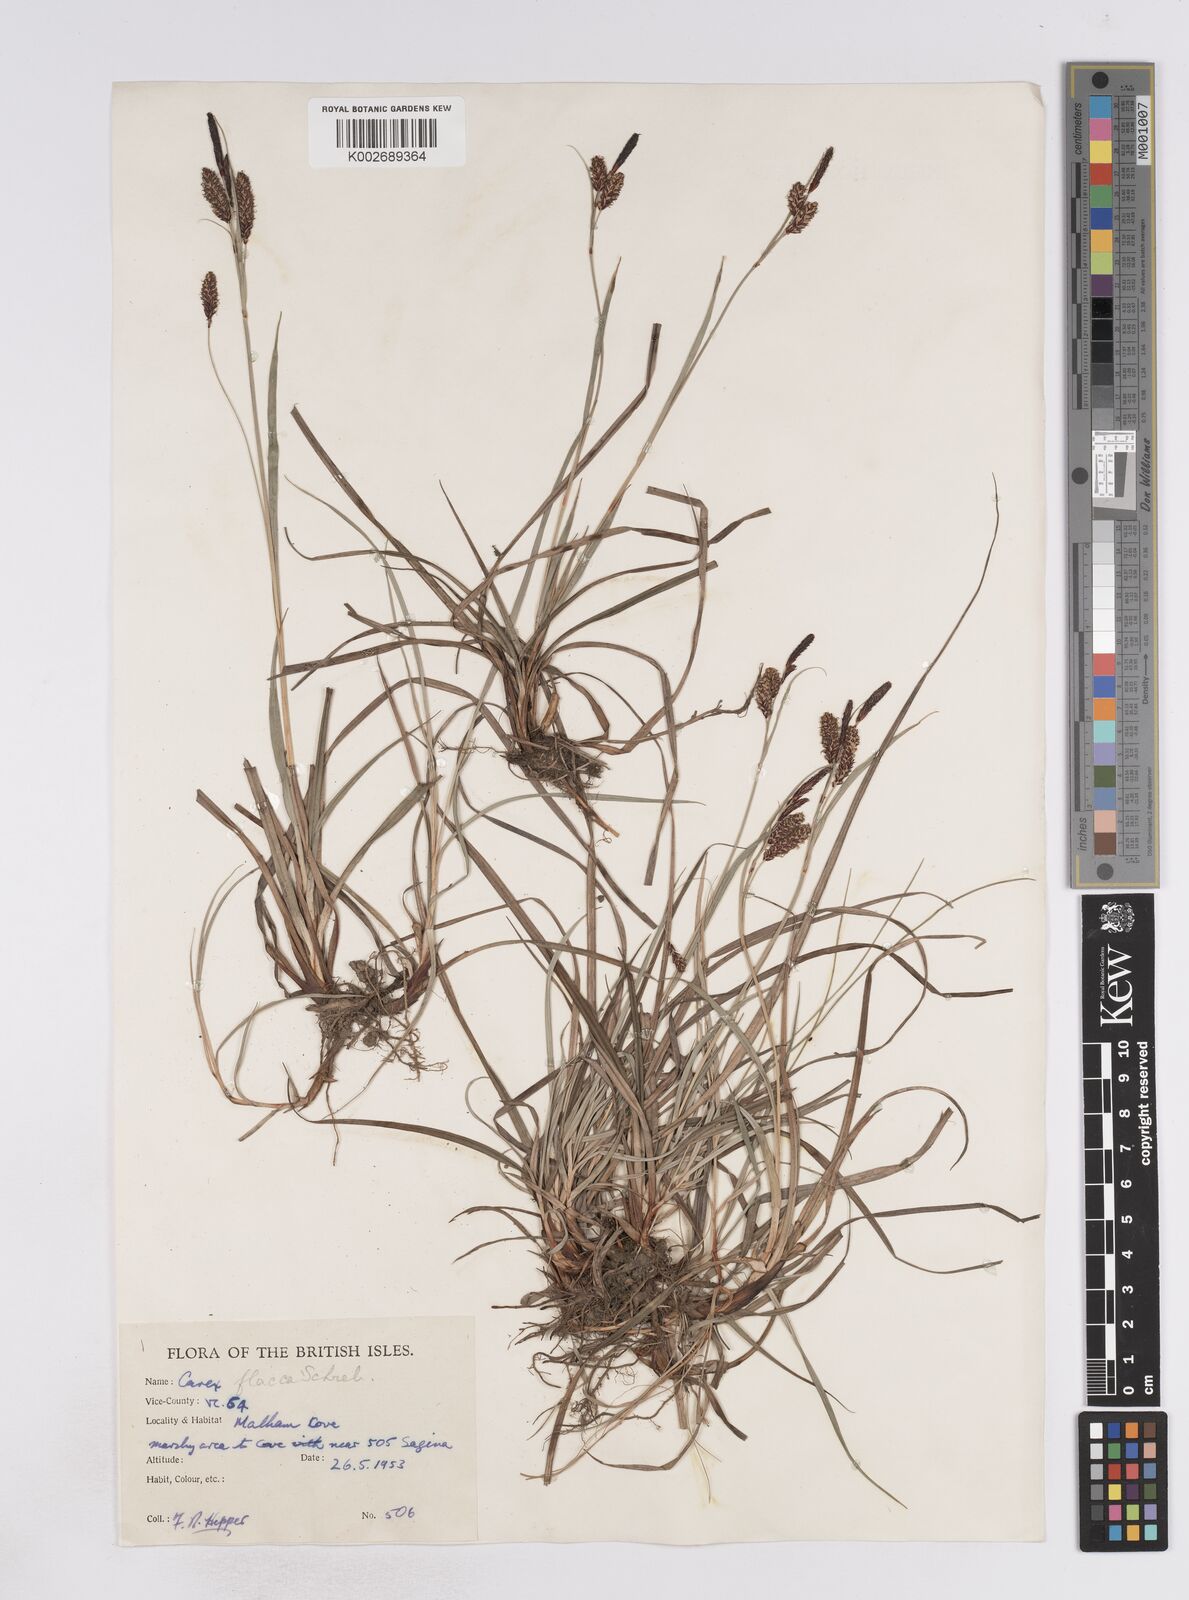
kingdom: Plantae
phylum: Tracheophyta
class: Liliopsida
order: Poales
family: Cyperaceae
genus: Carex
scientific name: Carex flacca
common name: Glaucous sedge
